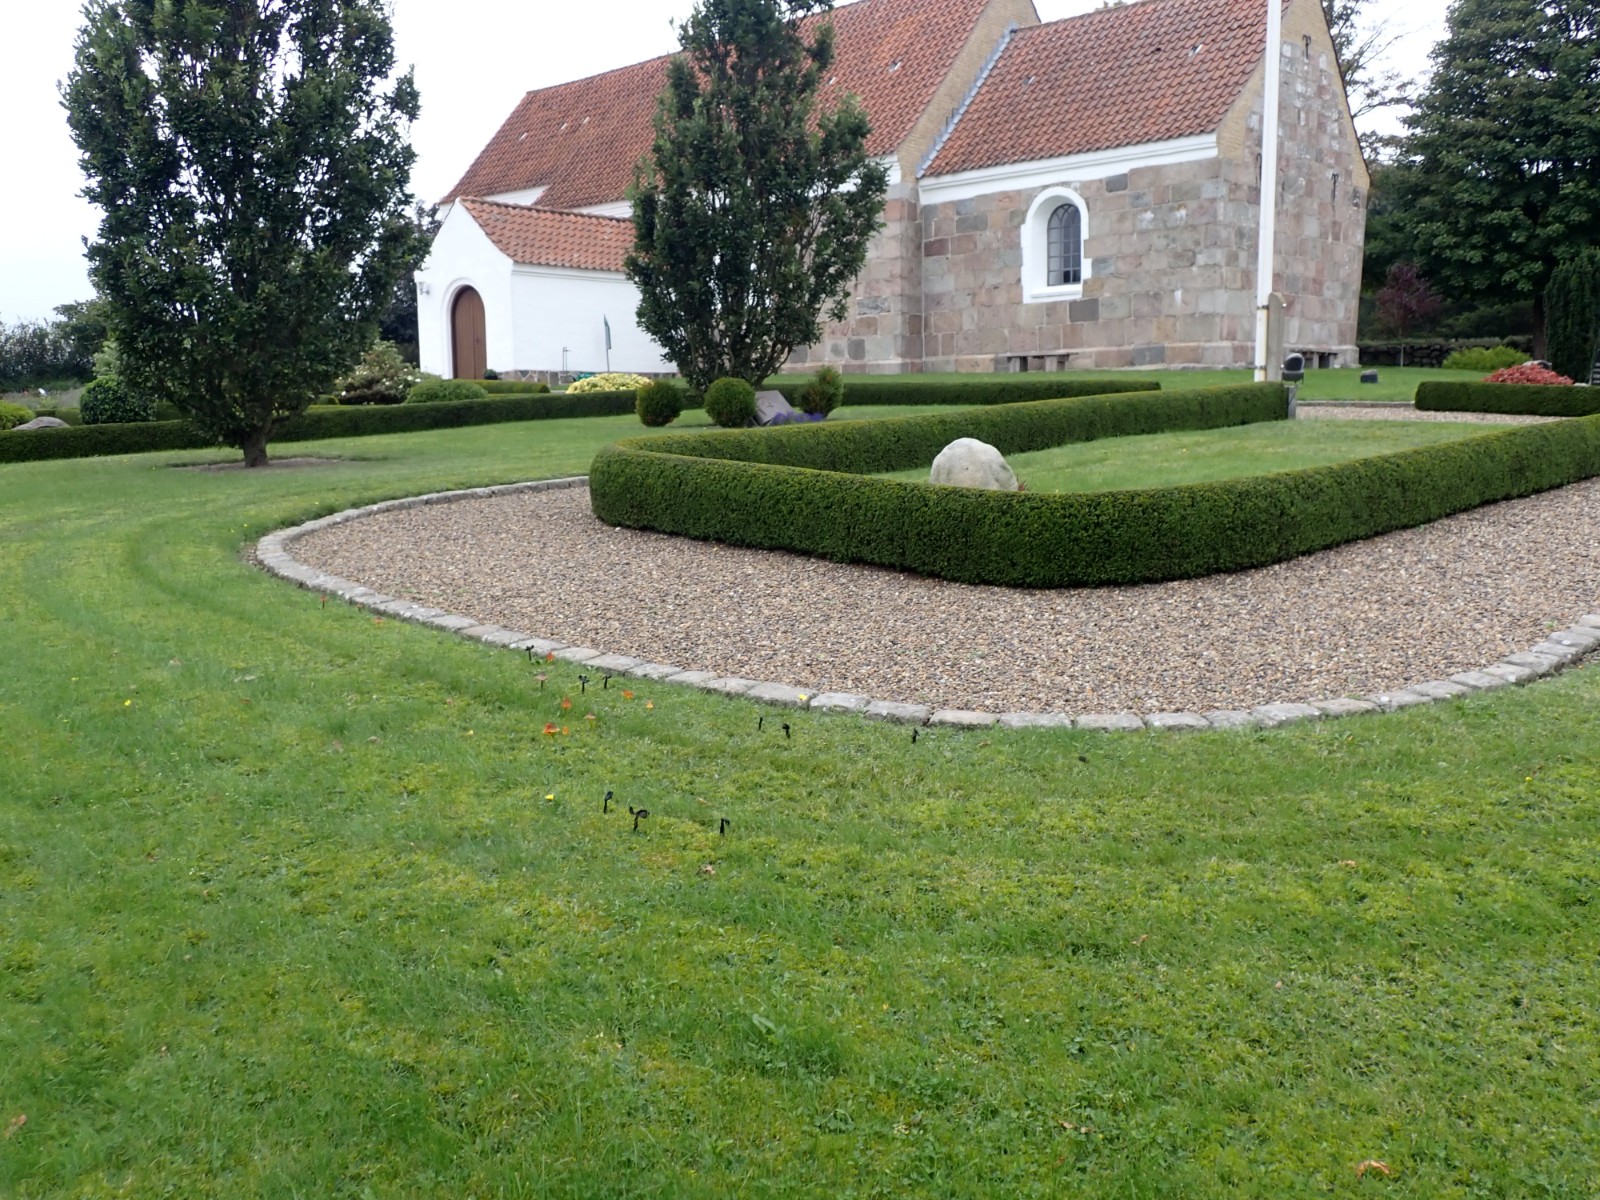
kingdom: Fungi
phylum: Basidiomycota
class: Agaricomycetes
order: Agaricales
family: Hygrophoraceae
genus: Hygrocybe
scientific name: Hygrocybe conica
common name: kegle-vokshat
